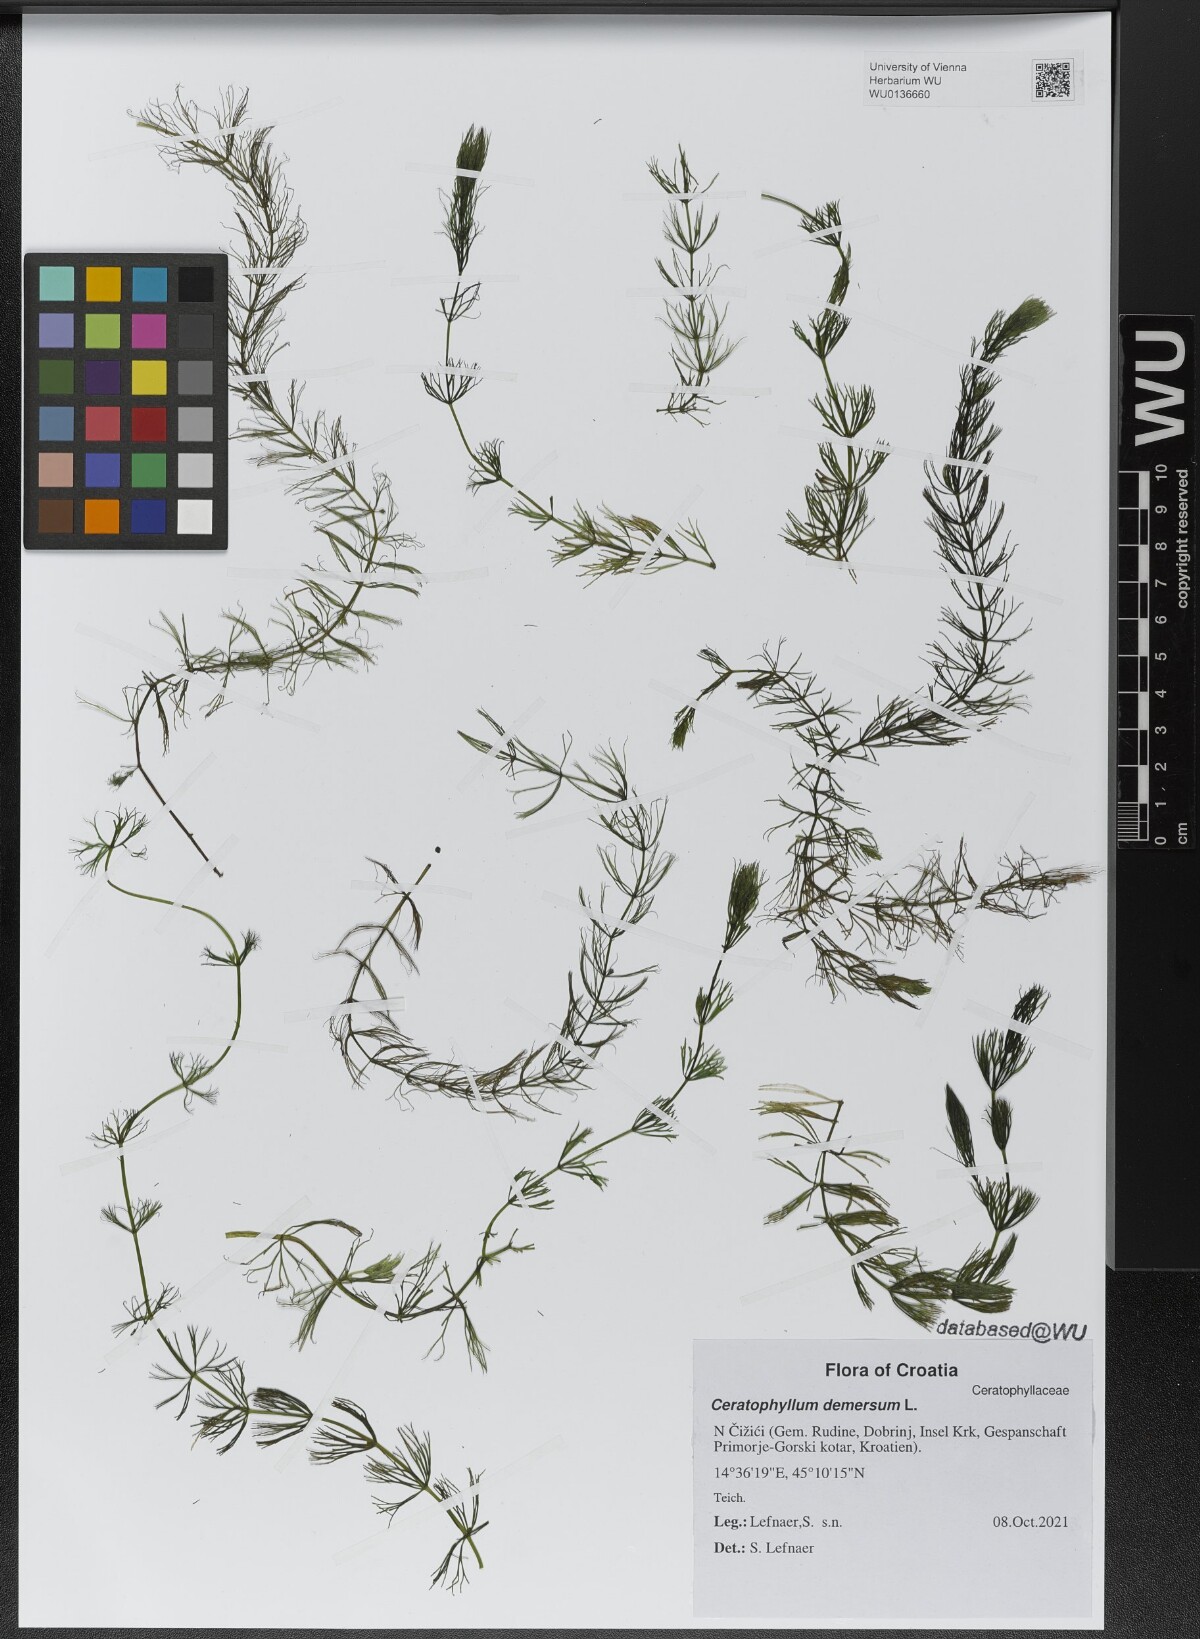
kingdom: Plantae
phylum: Tracheophyta
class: Magnoliopsida
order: Ceratophyllales
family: Ceratophyllaceae
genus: Ceratophyllum
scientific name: Ceratophyllum demersum
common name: Rigid hornwort
